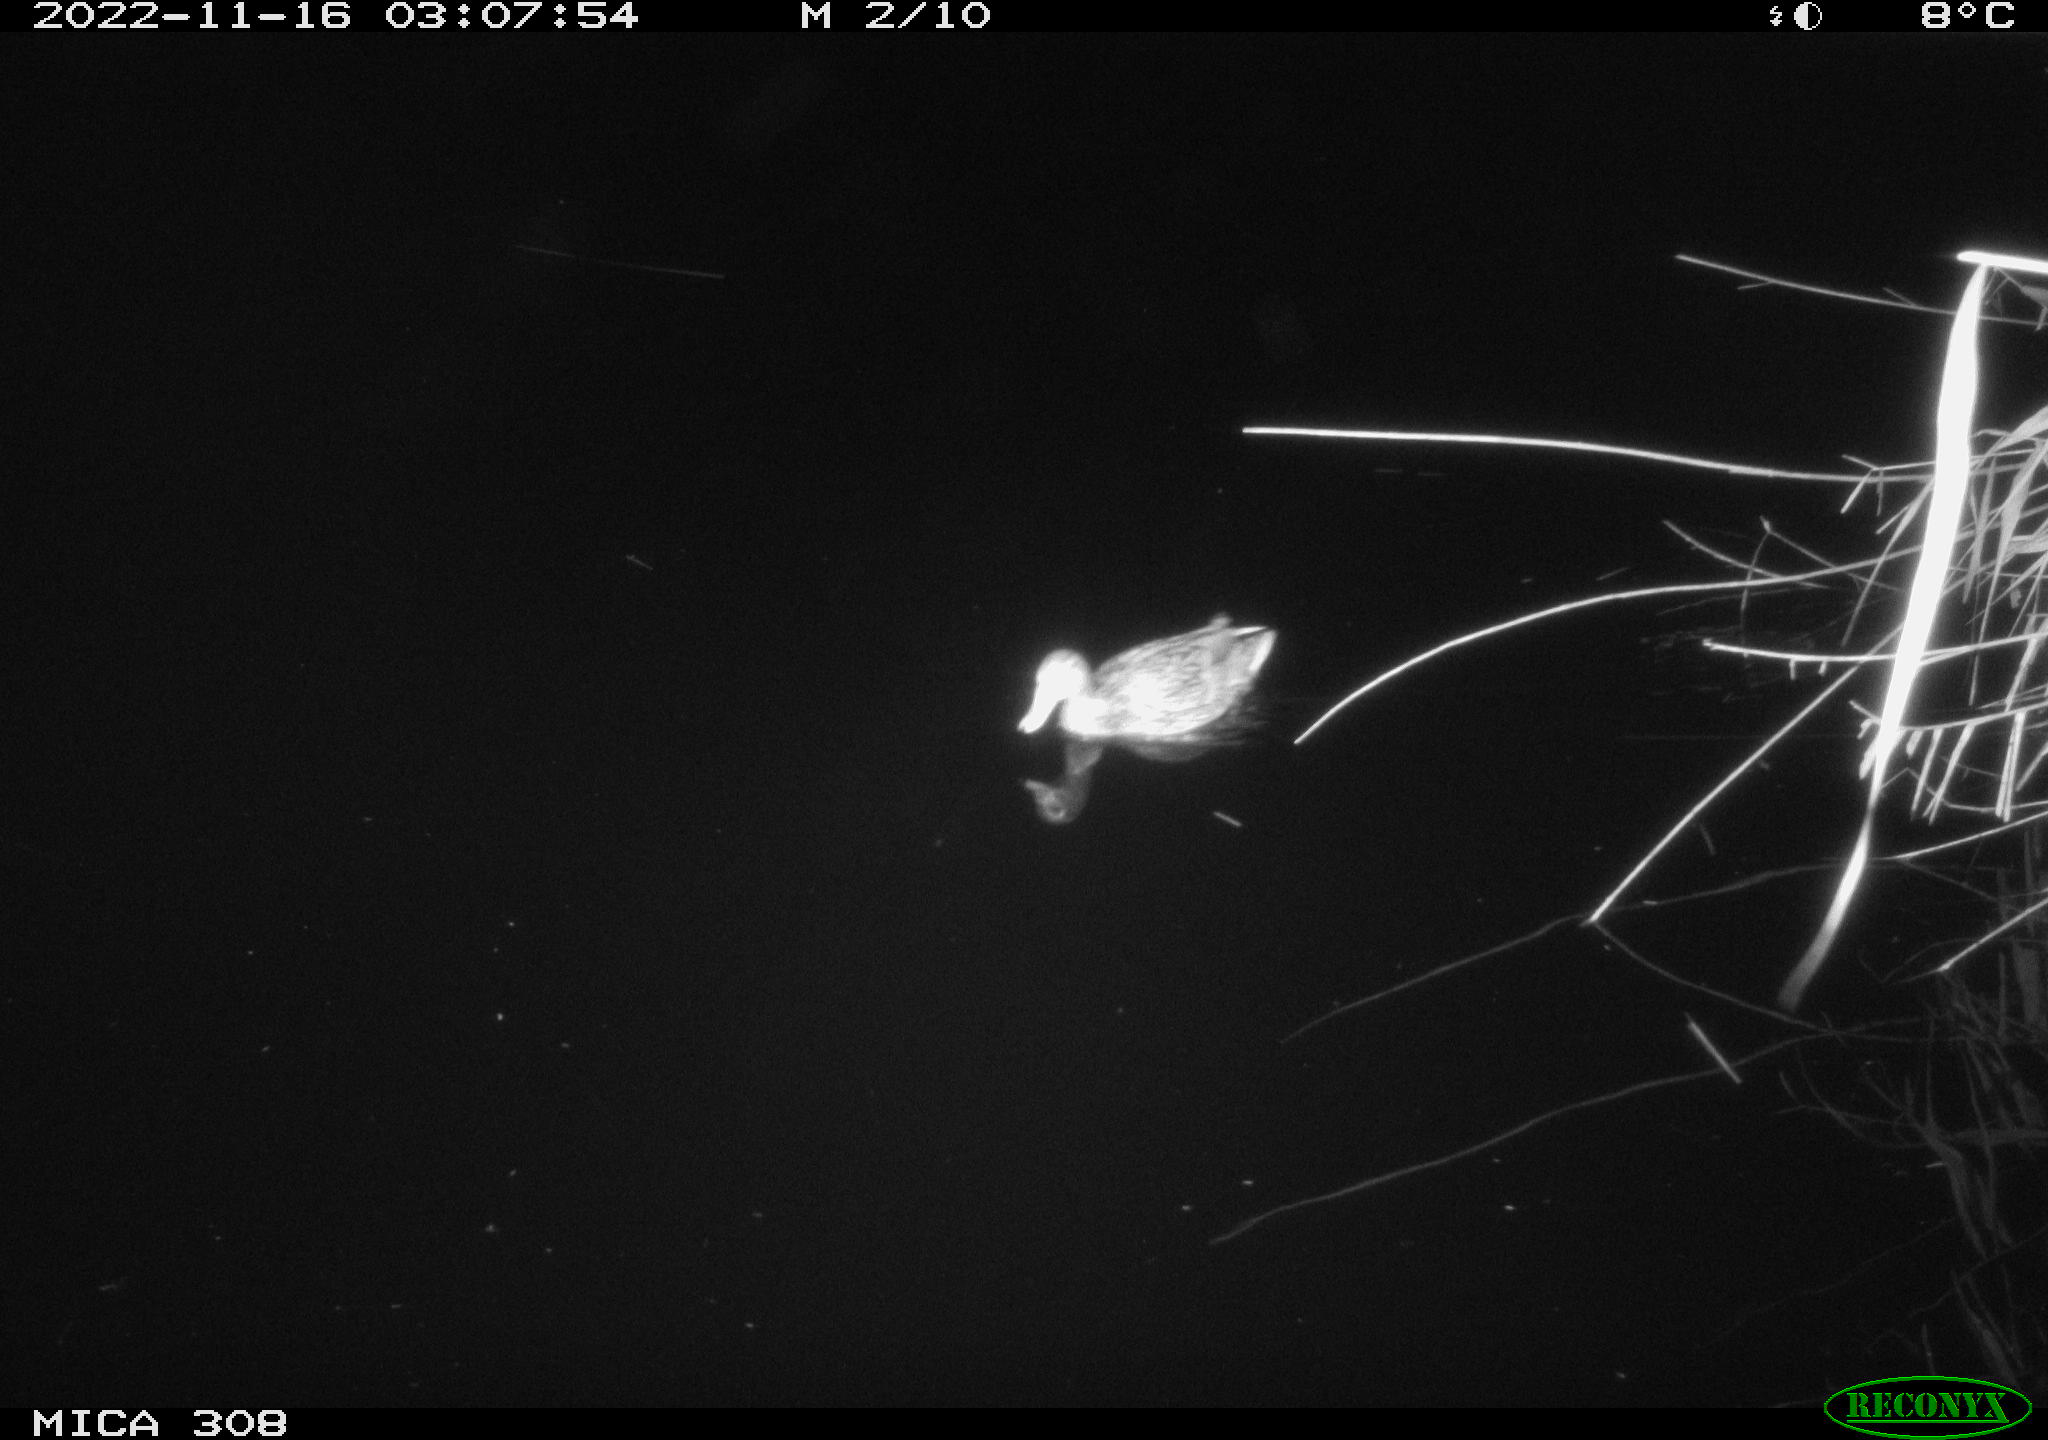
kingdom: Animalia
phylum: Chordata
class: Aves
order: Anseriformes
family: Anatidae
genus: Anas
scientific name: Anas
